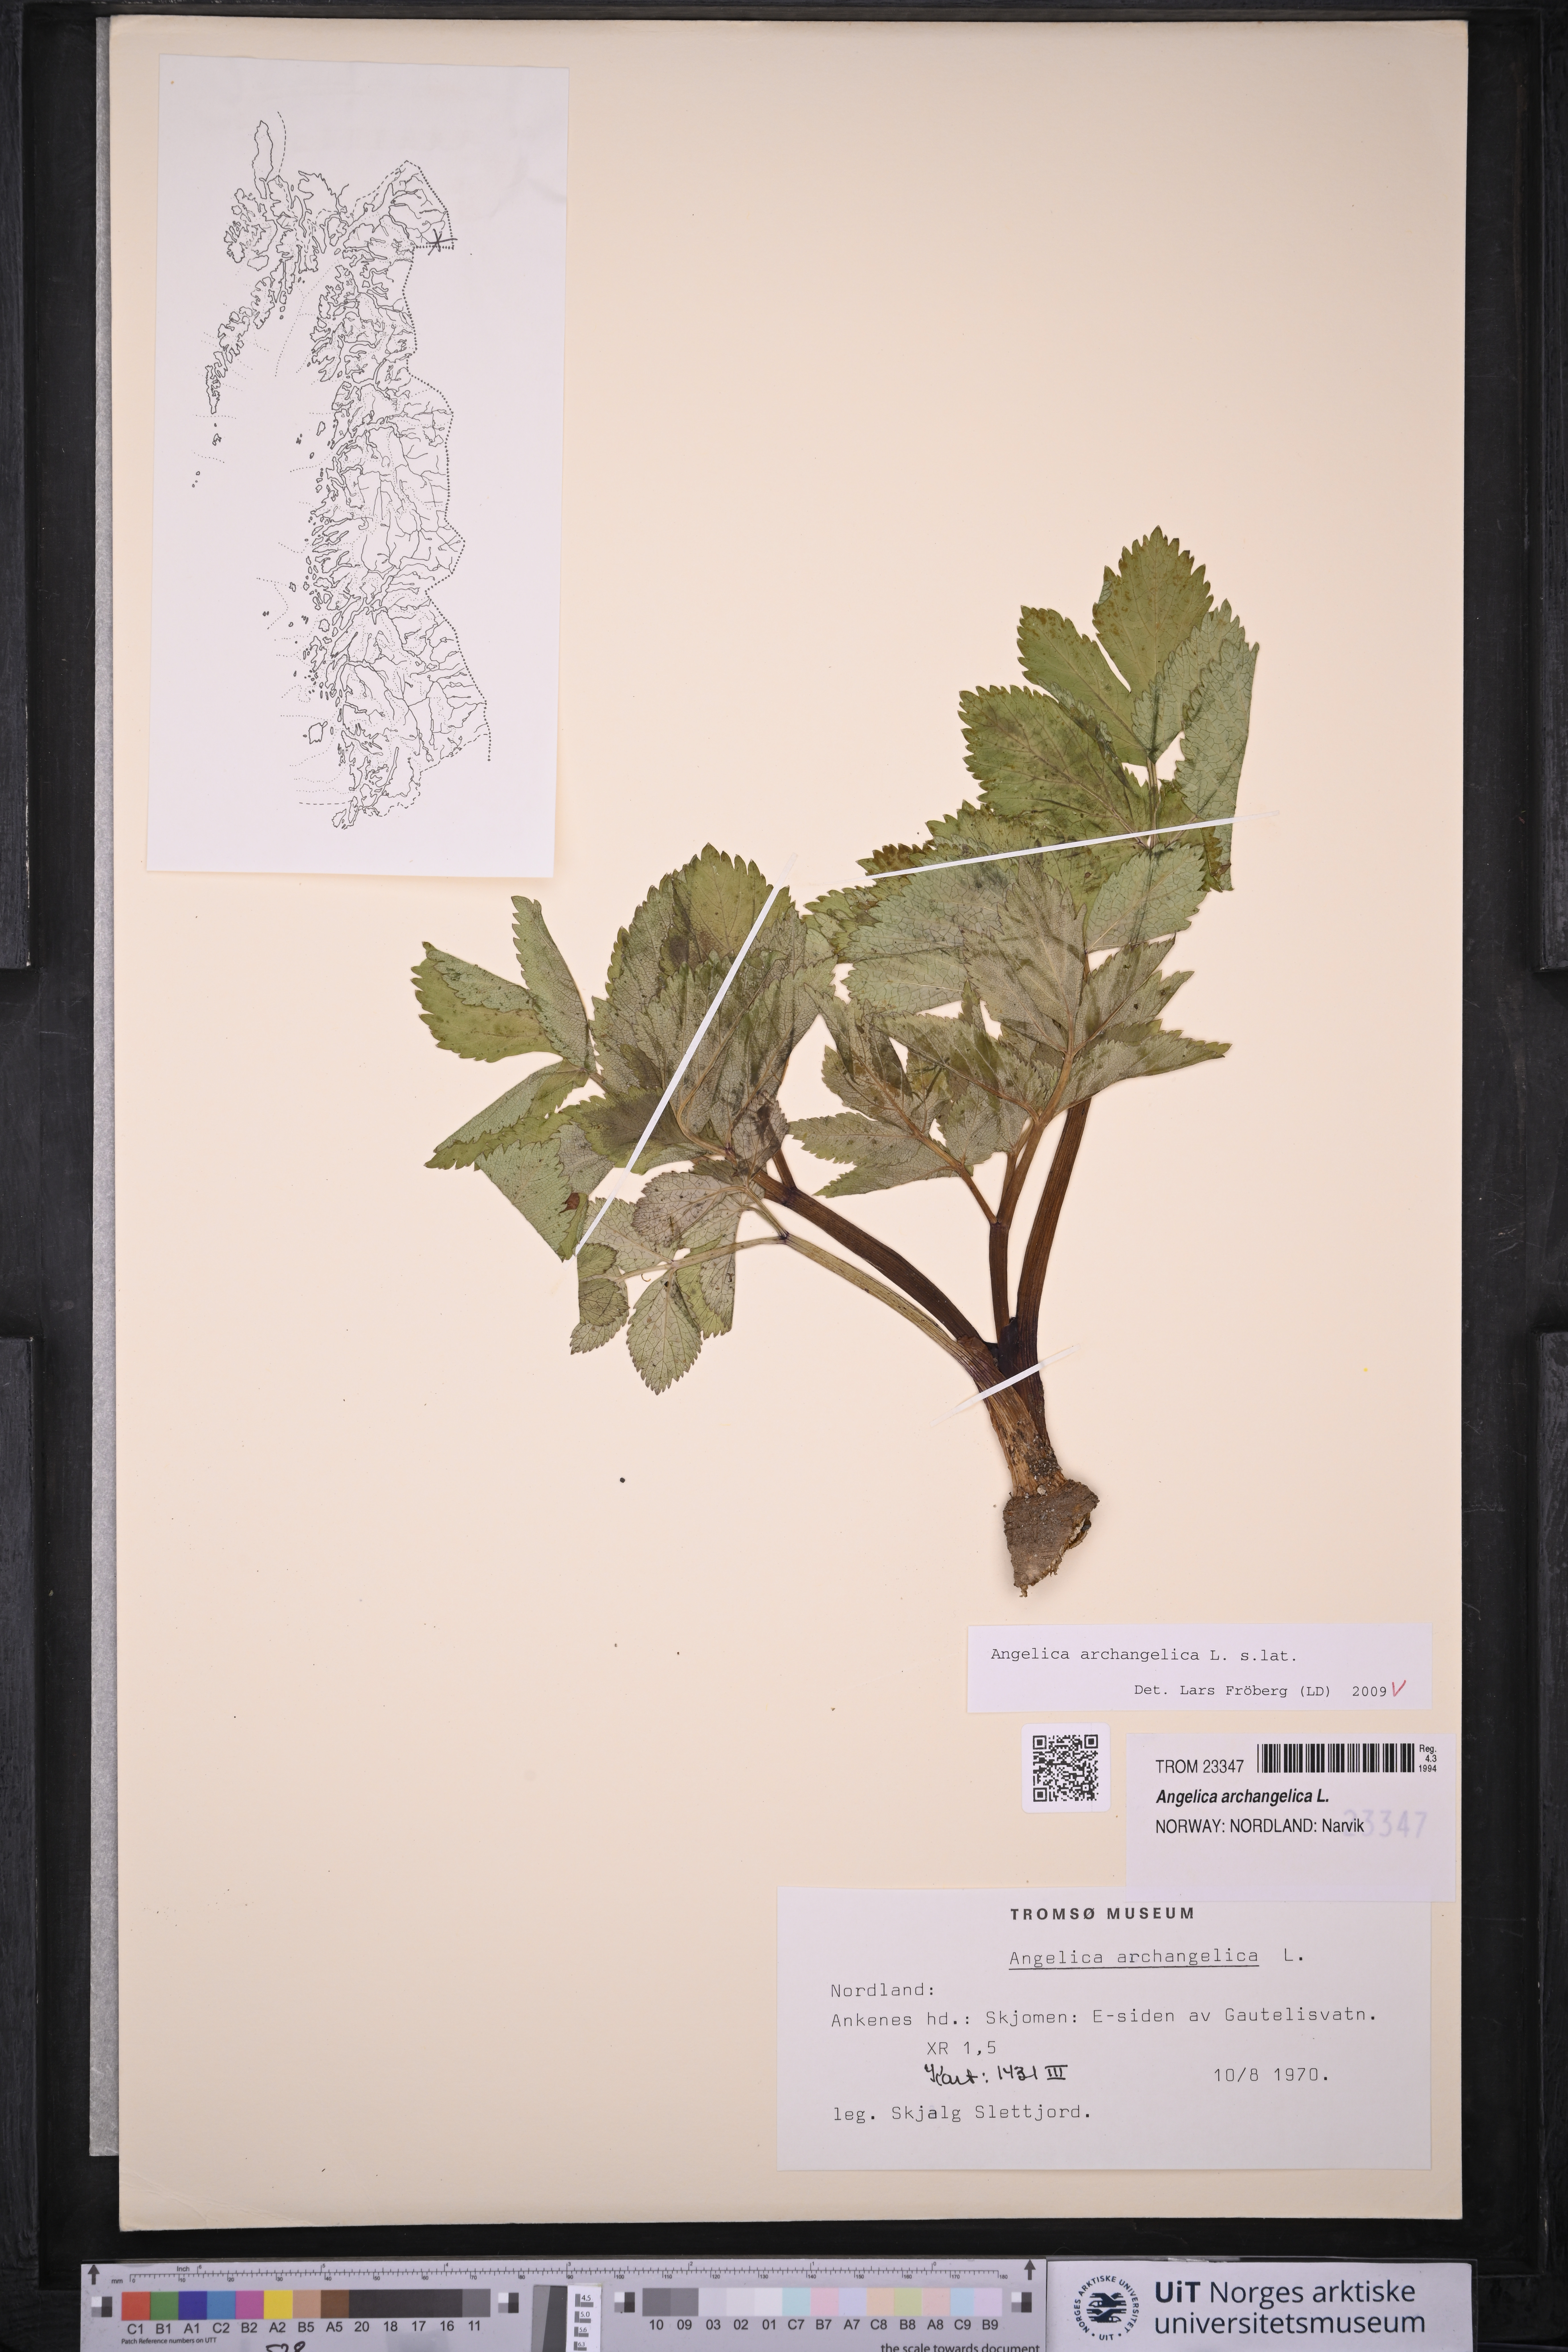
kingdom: Plantae
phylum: Tracheophyta
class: Magnoliopsida
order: Apiales
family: Apiaceae
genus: Angelica
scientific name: Angelica archangelica
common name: Garden angelica
